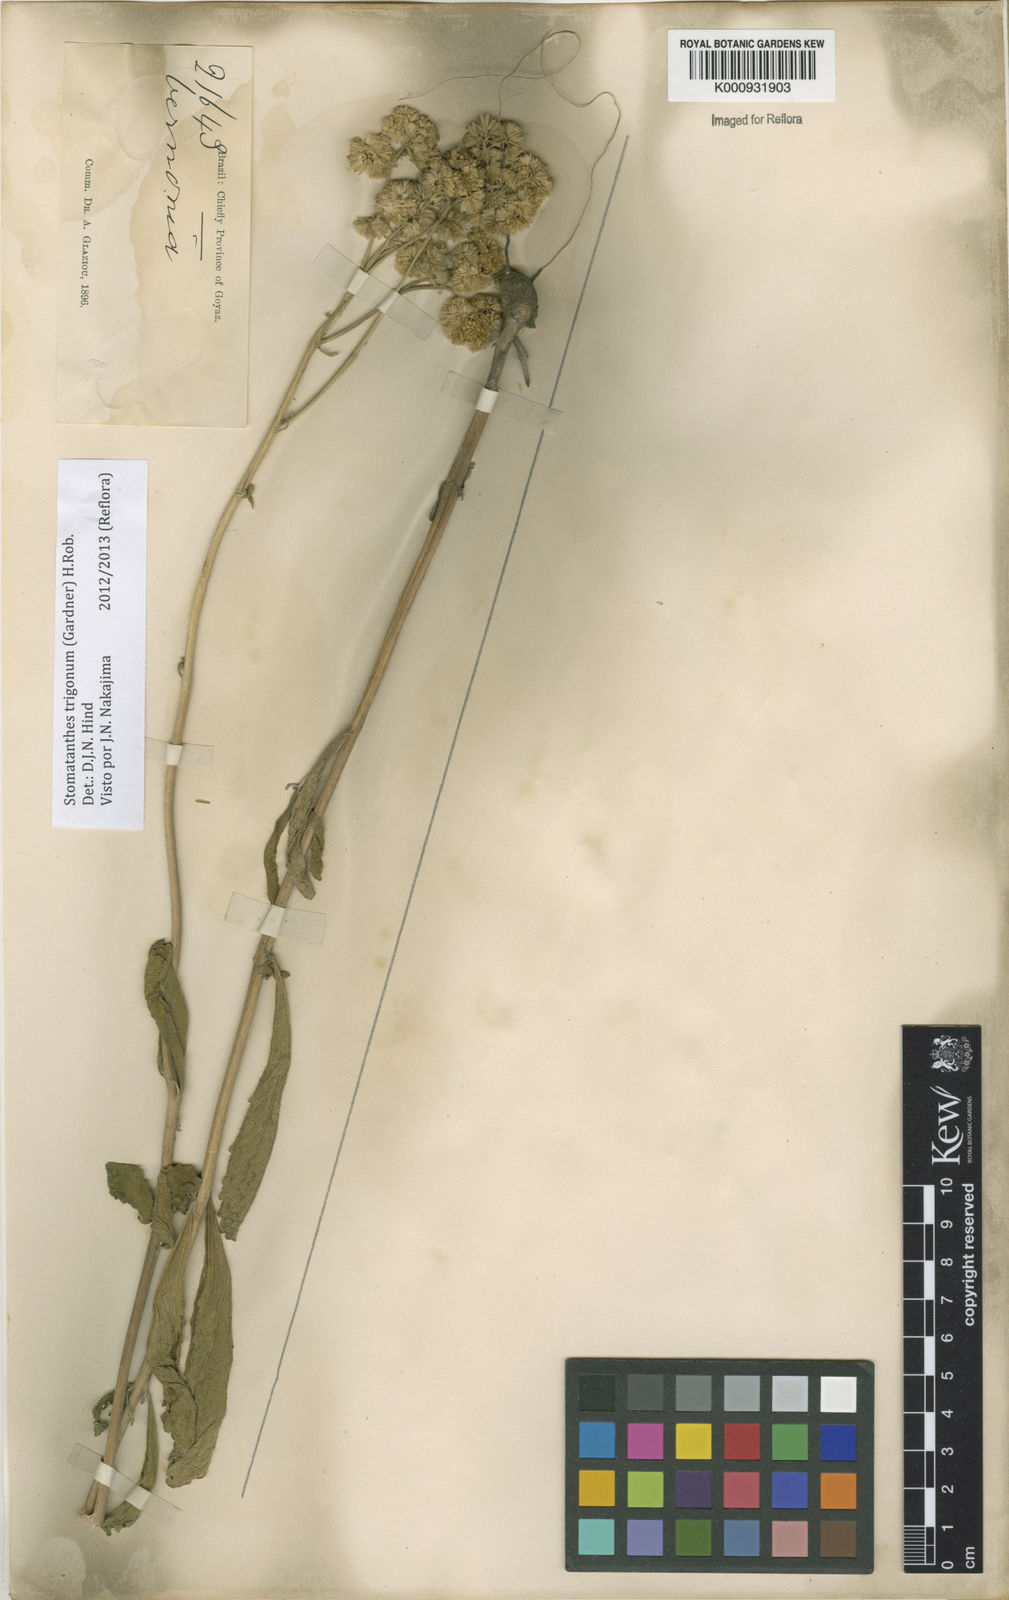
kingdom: Plantae
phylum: Tracheophyta
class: Magnoliopsida
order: Asterales
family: Asteraceae
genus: Stomatanthes
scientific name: Stomatanthes trigonus
